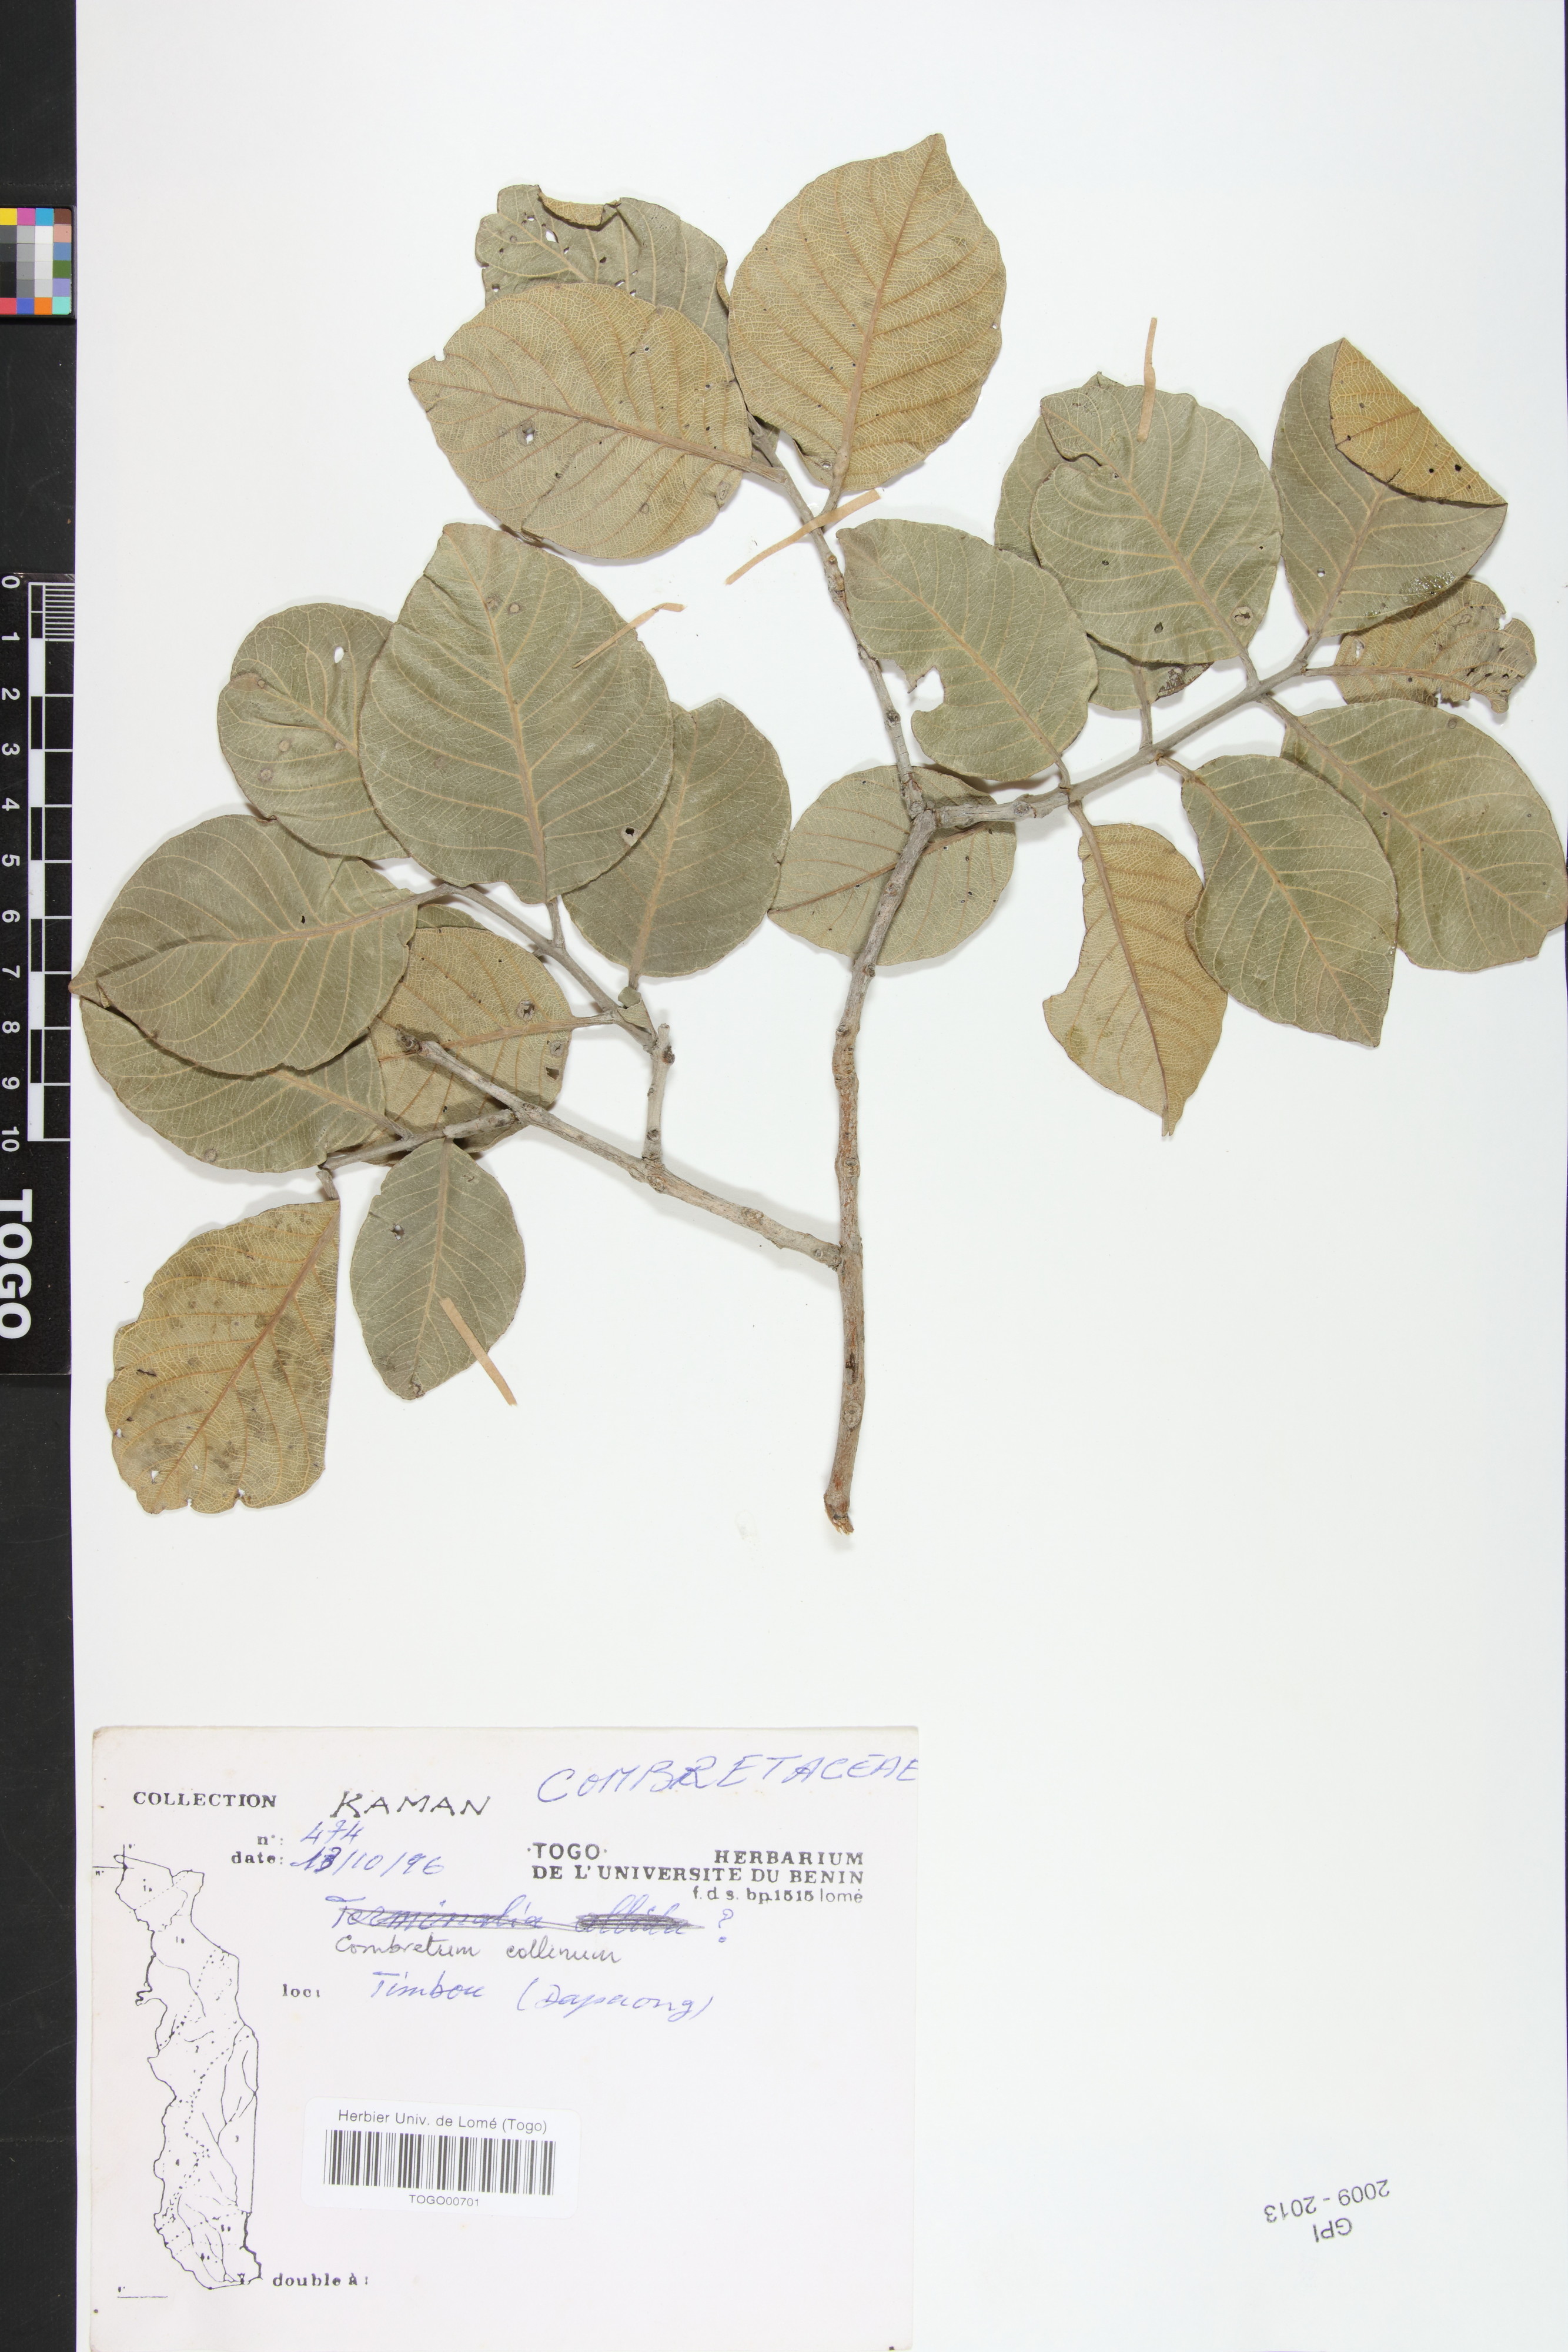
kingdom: Plantae
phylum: Tracheophyta
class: Magnoliopsida
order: Myrtales
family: Combretaceae
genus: Combretum
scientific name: Combretum collinum
